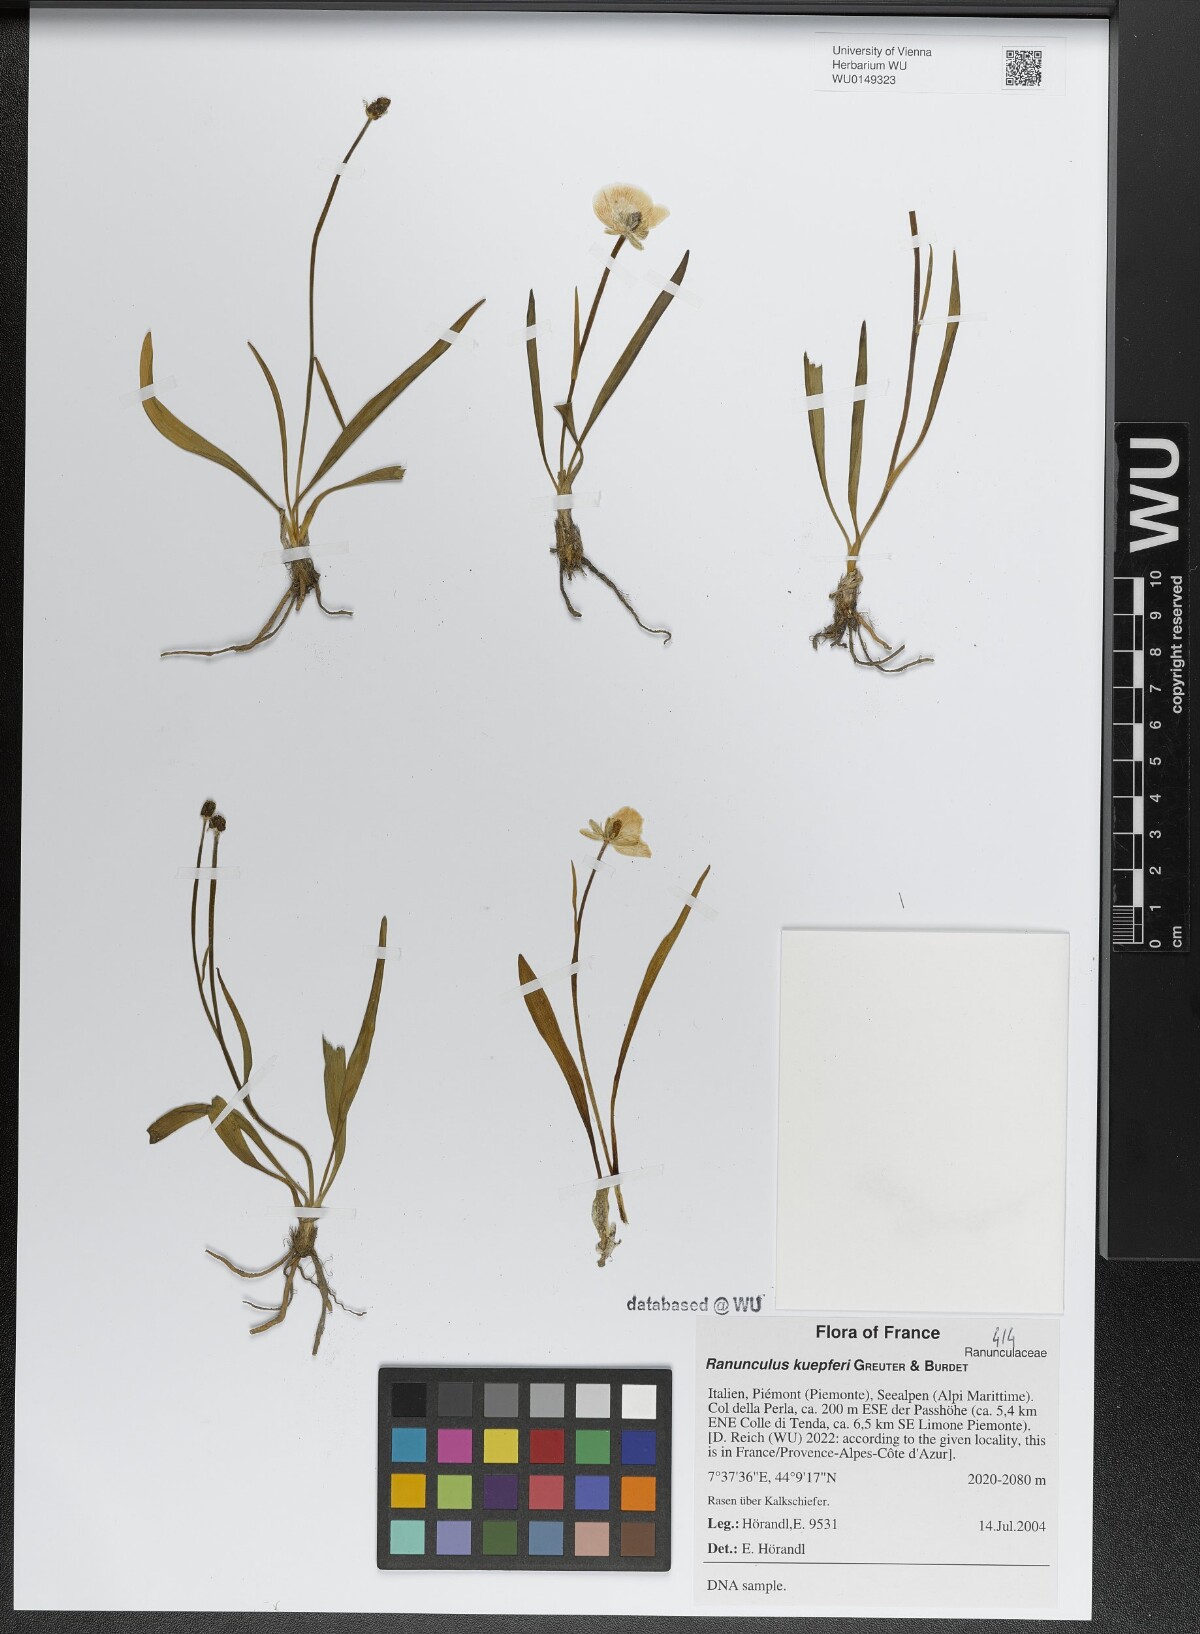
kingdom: Plantae
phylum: Tracheophyta
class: Magnoliopsida
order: Ranunculales
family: Ranunculaceae
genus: Ranunculus
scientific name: Ranunculus kuepferi
